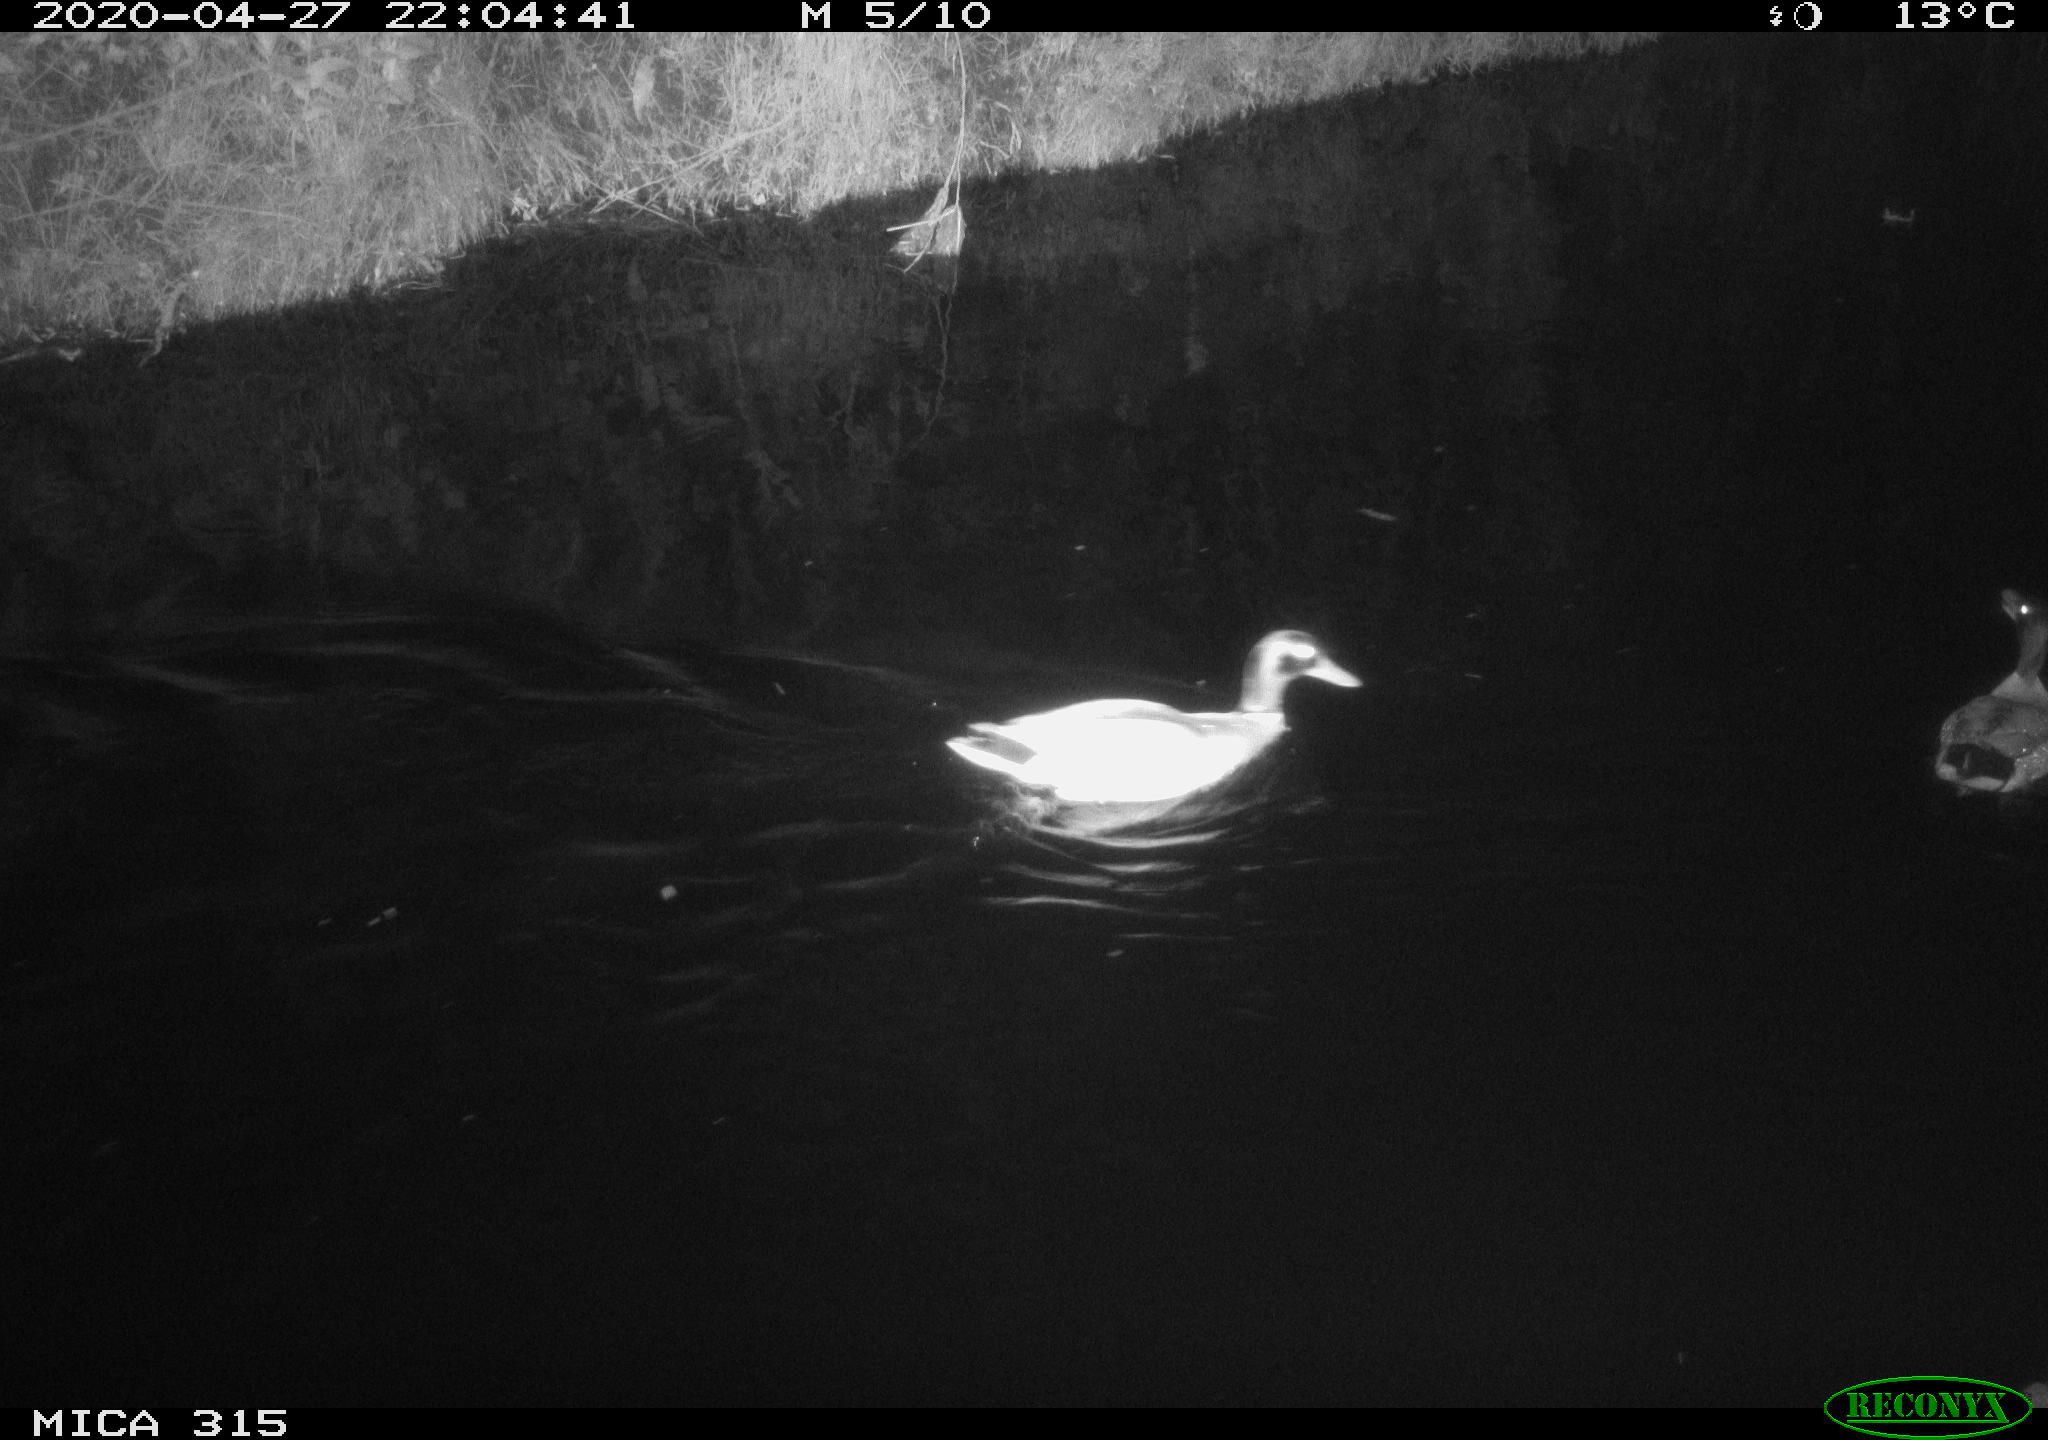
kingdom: Animalia
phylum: Chordata
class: Aves
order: Anseriformes
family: Anatidae
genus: Anas
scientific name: Anas platyrhynchos
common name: Mallard
